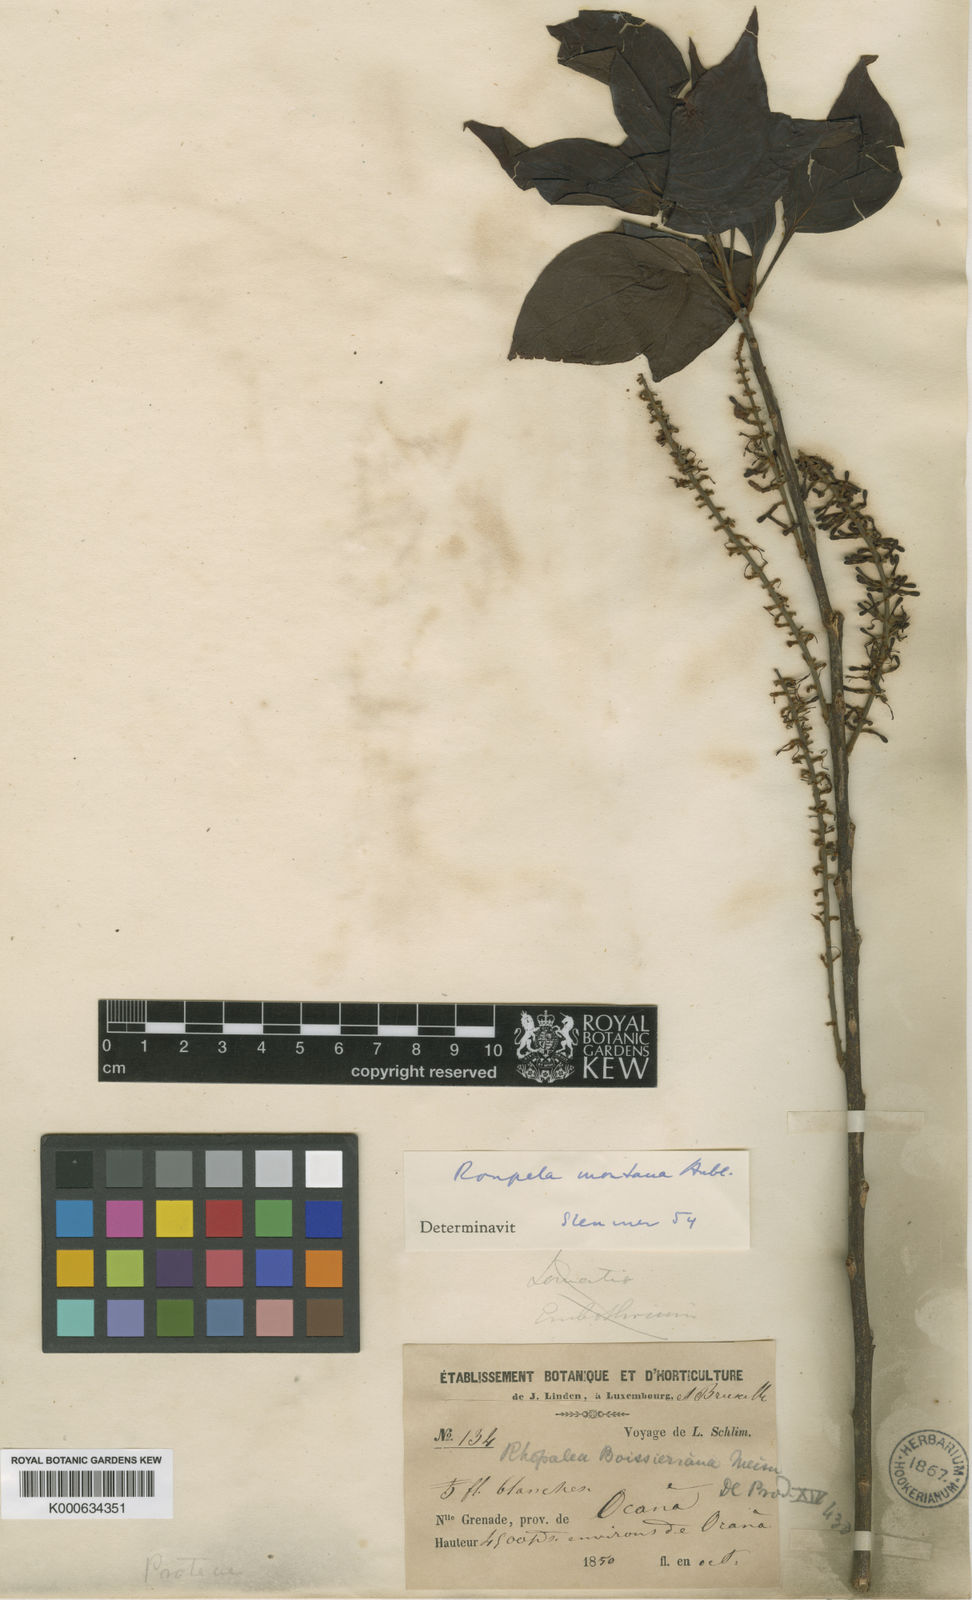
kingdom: Plantae
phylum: Tracheophyta
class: Magnoliopsida
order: Proteales
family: Proteaceae
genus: Roupala
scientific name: Roupala montana
